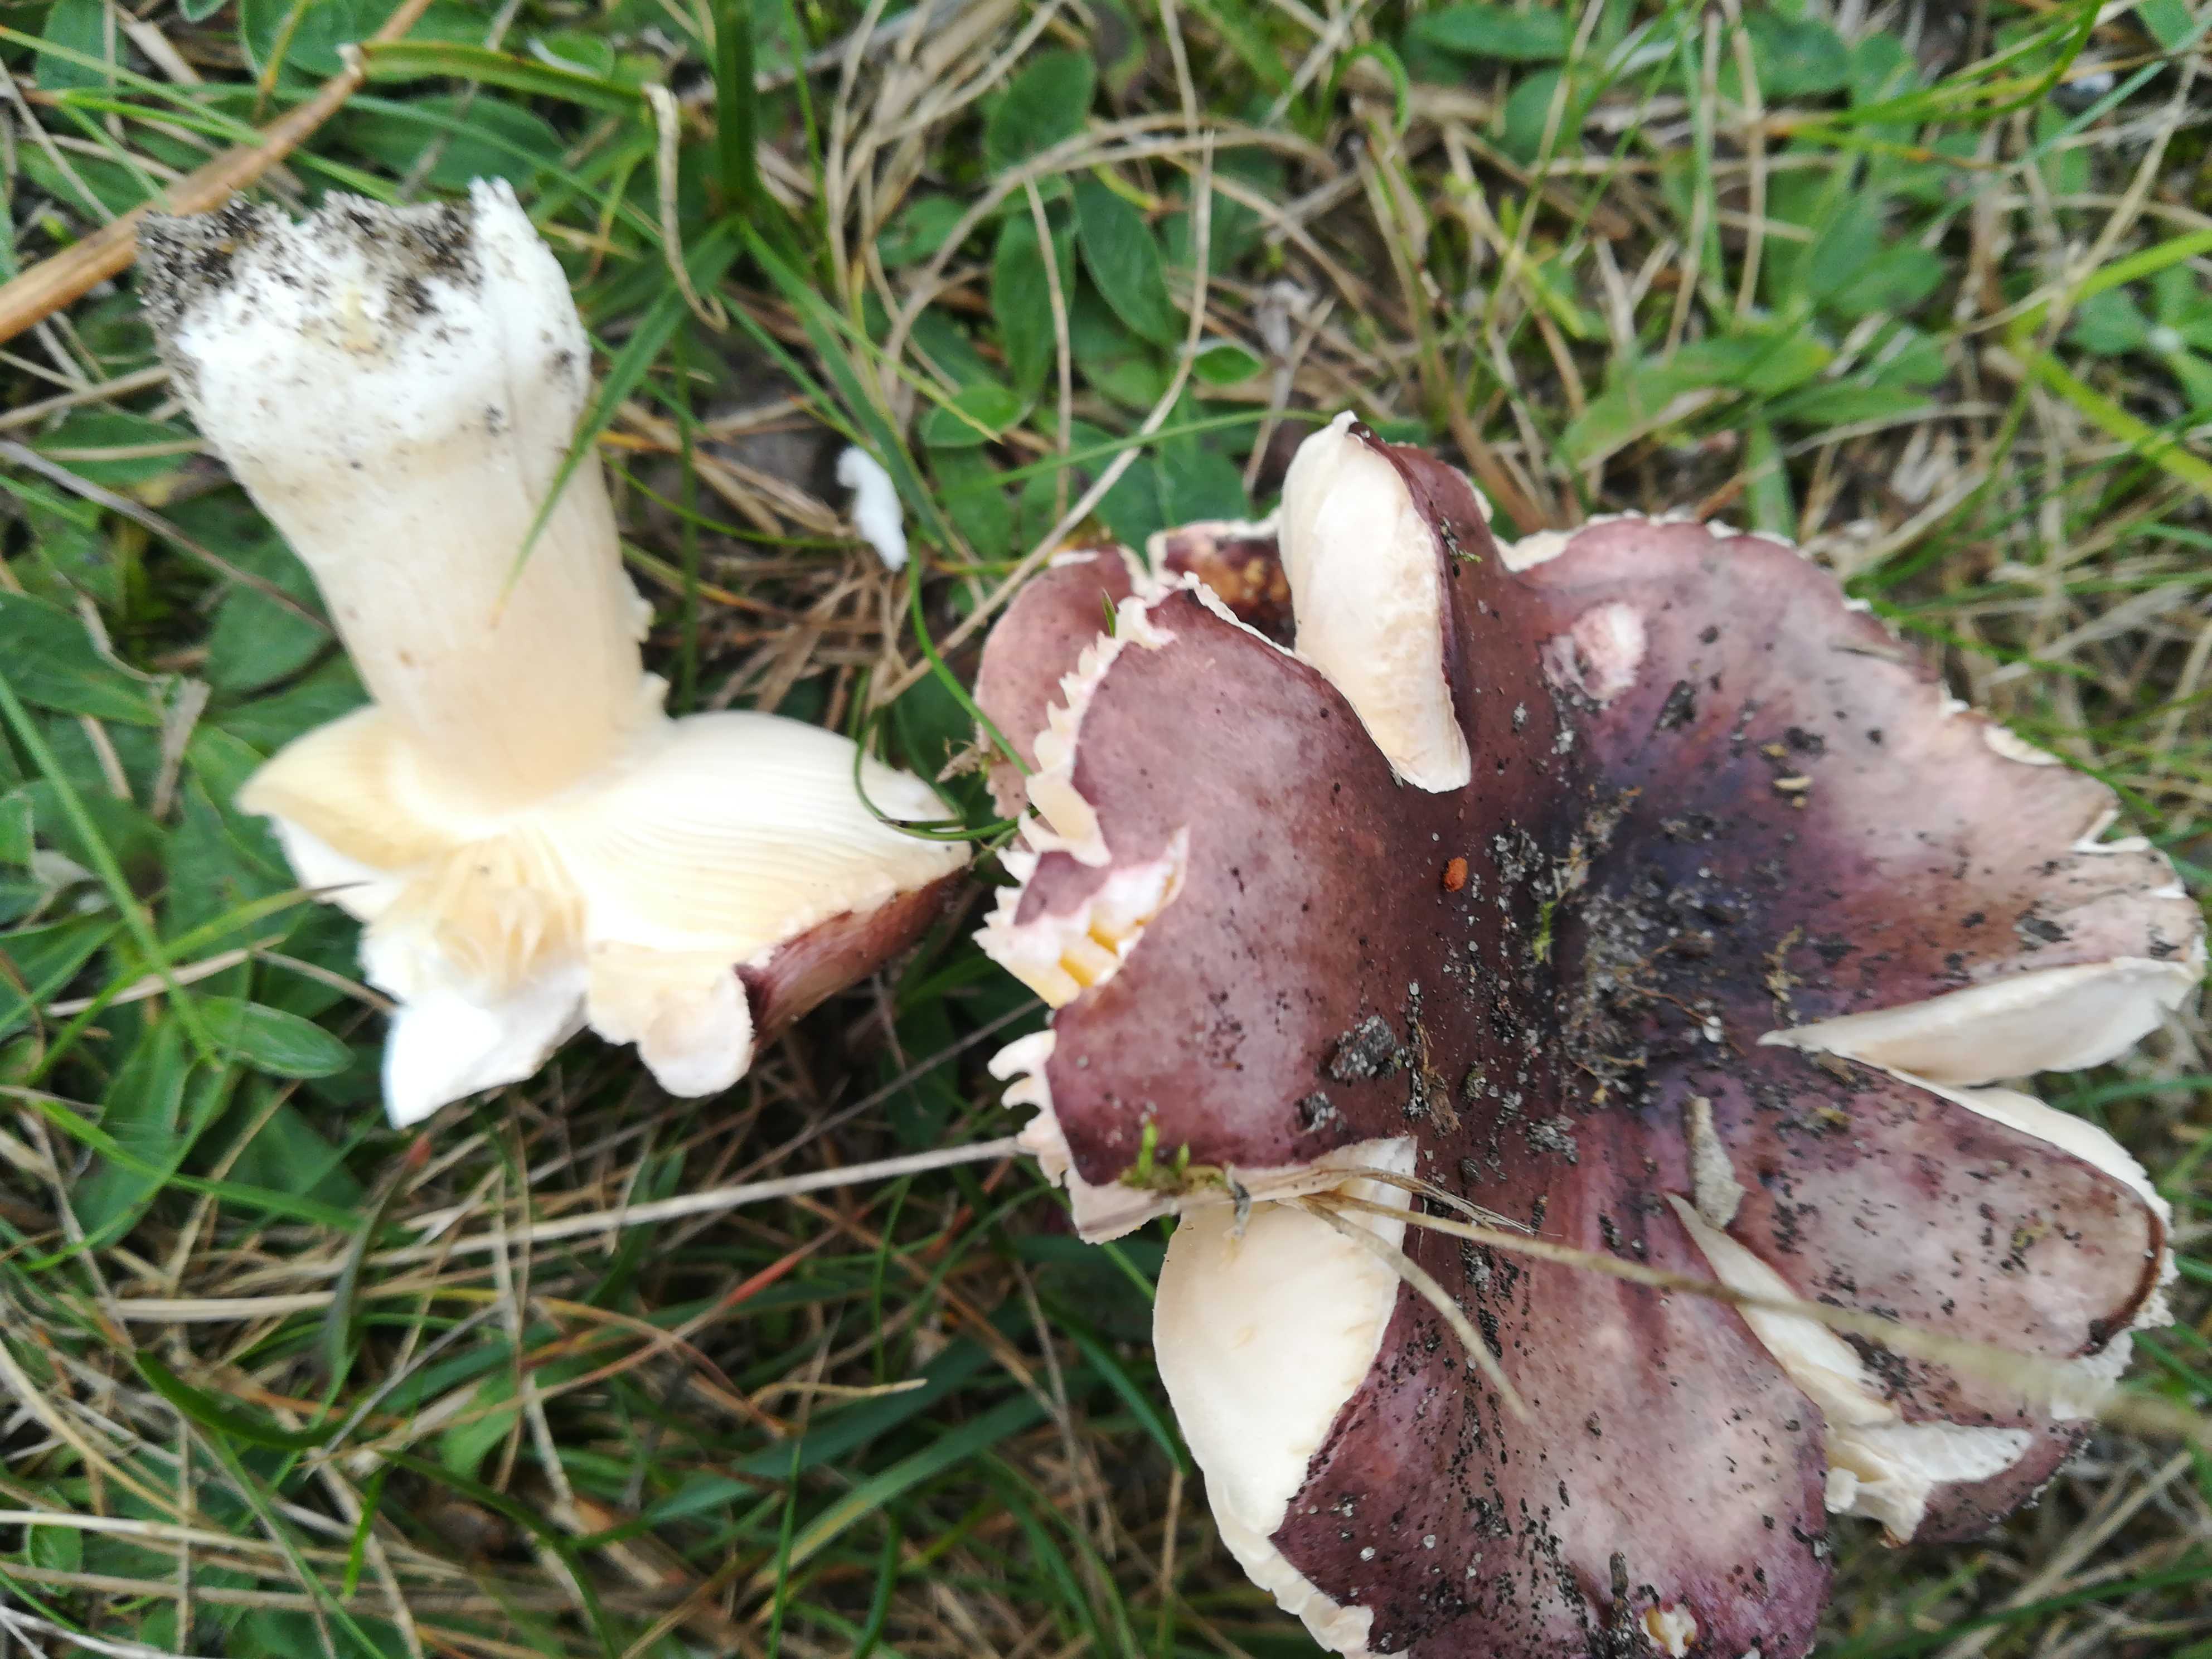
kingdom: Fungi
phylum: Basidiomycota
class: Agaricomycetes
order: Russulales
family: Russulaceae
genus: Russula
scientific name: Russula cessans
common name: fyrre-skørhat
